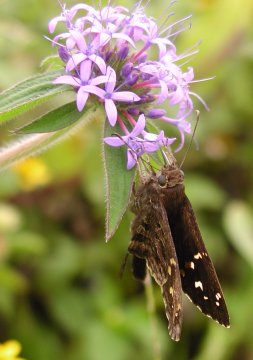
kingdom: Animalia
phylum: Arthropoda
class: Insecta
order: Lepidoptera
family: Hesperiidae
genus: Urbanus
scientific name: Urbanus dorantes
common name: Dorantes Longtail
